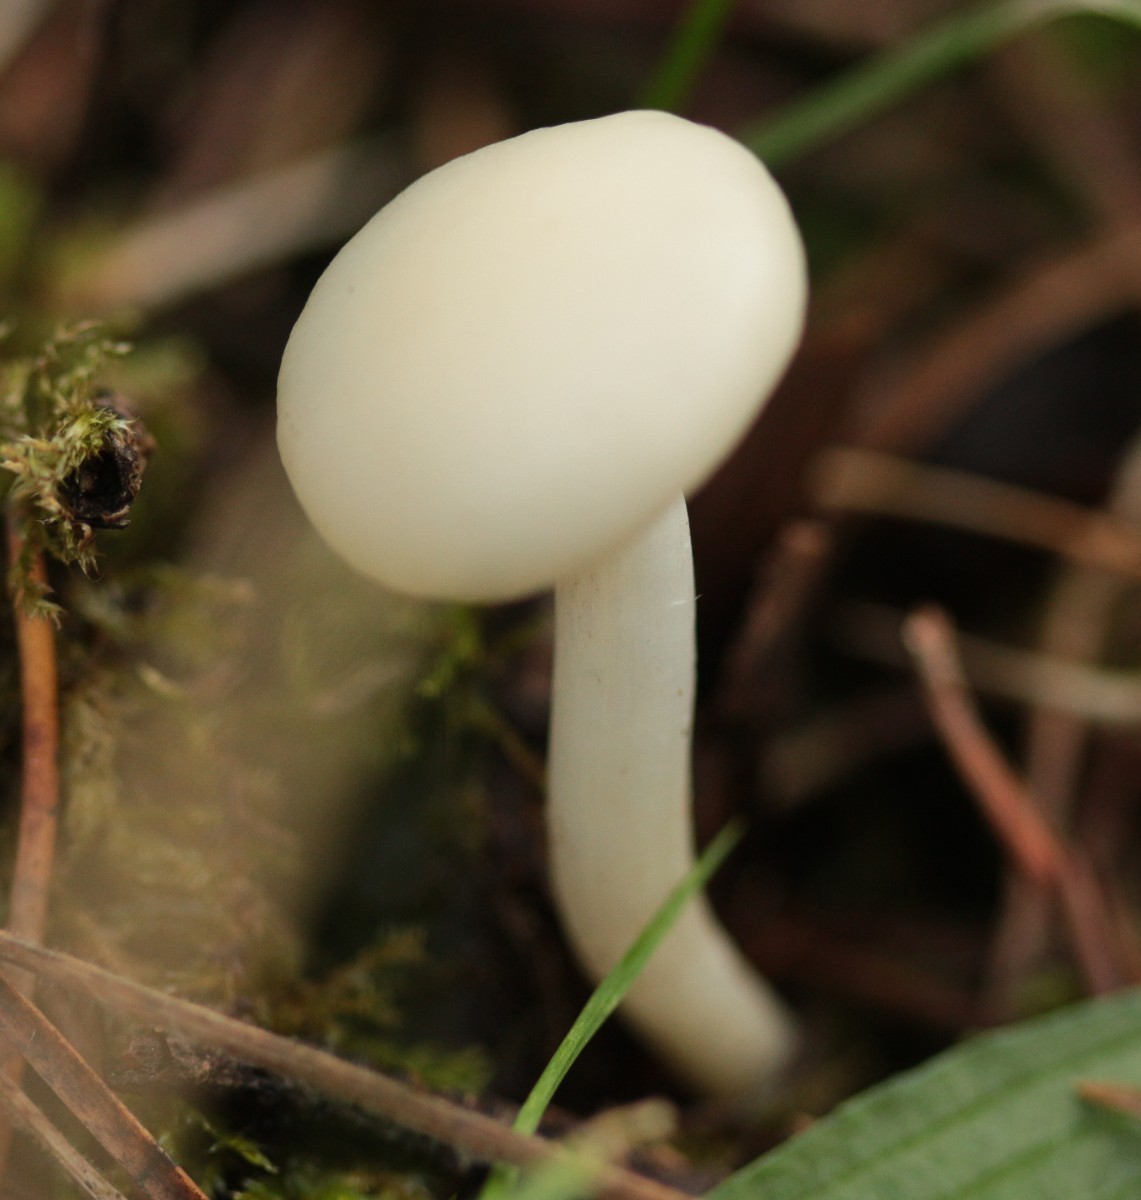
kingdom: Fungi
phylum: Basidiomycota
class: Agaricomycetes
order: Agaricales
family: Hygrophoraceae
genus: Cuphophyllus
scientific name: Cuphophyllus virgineus
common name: snehvid vokshat
